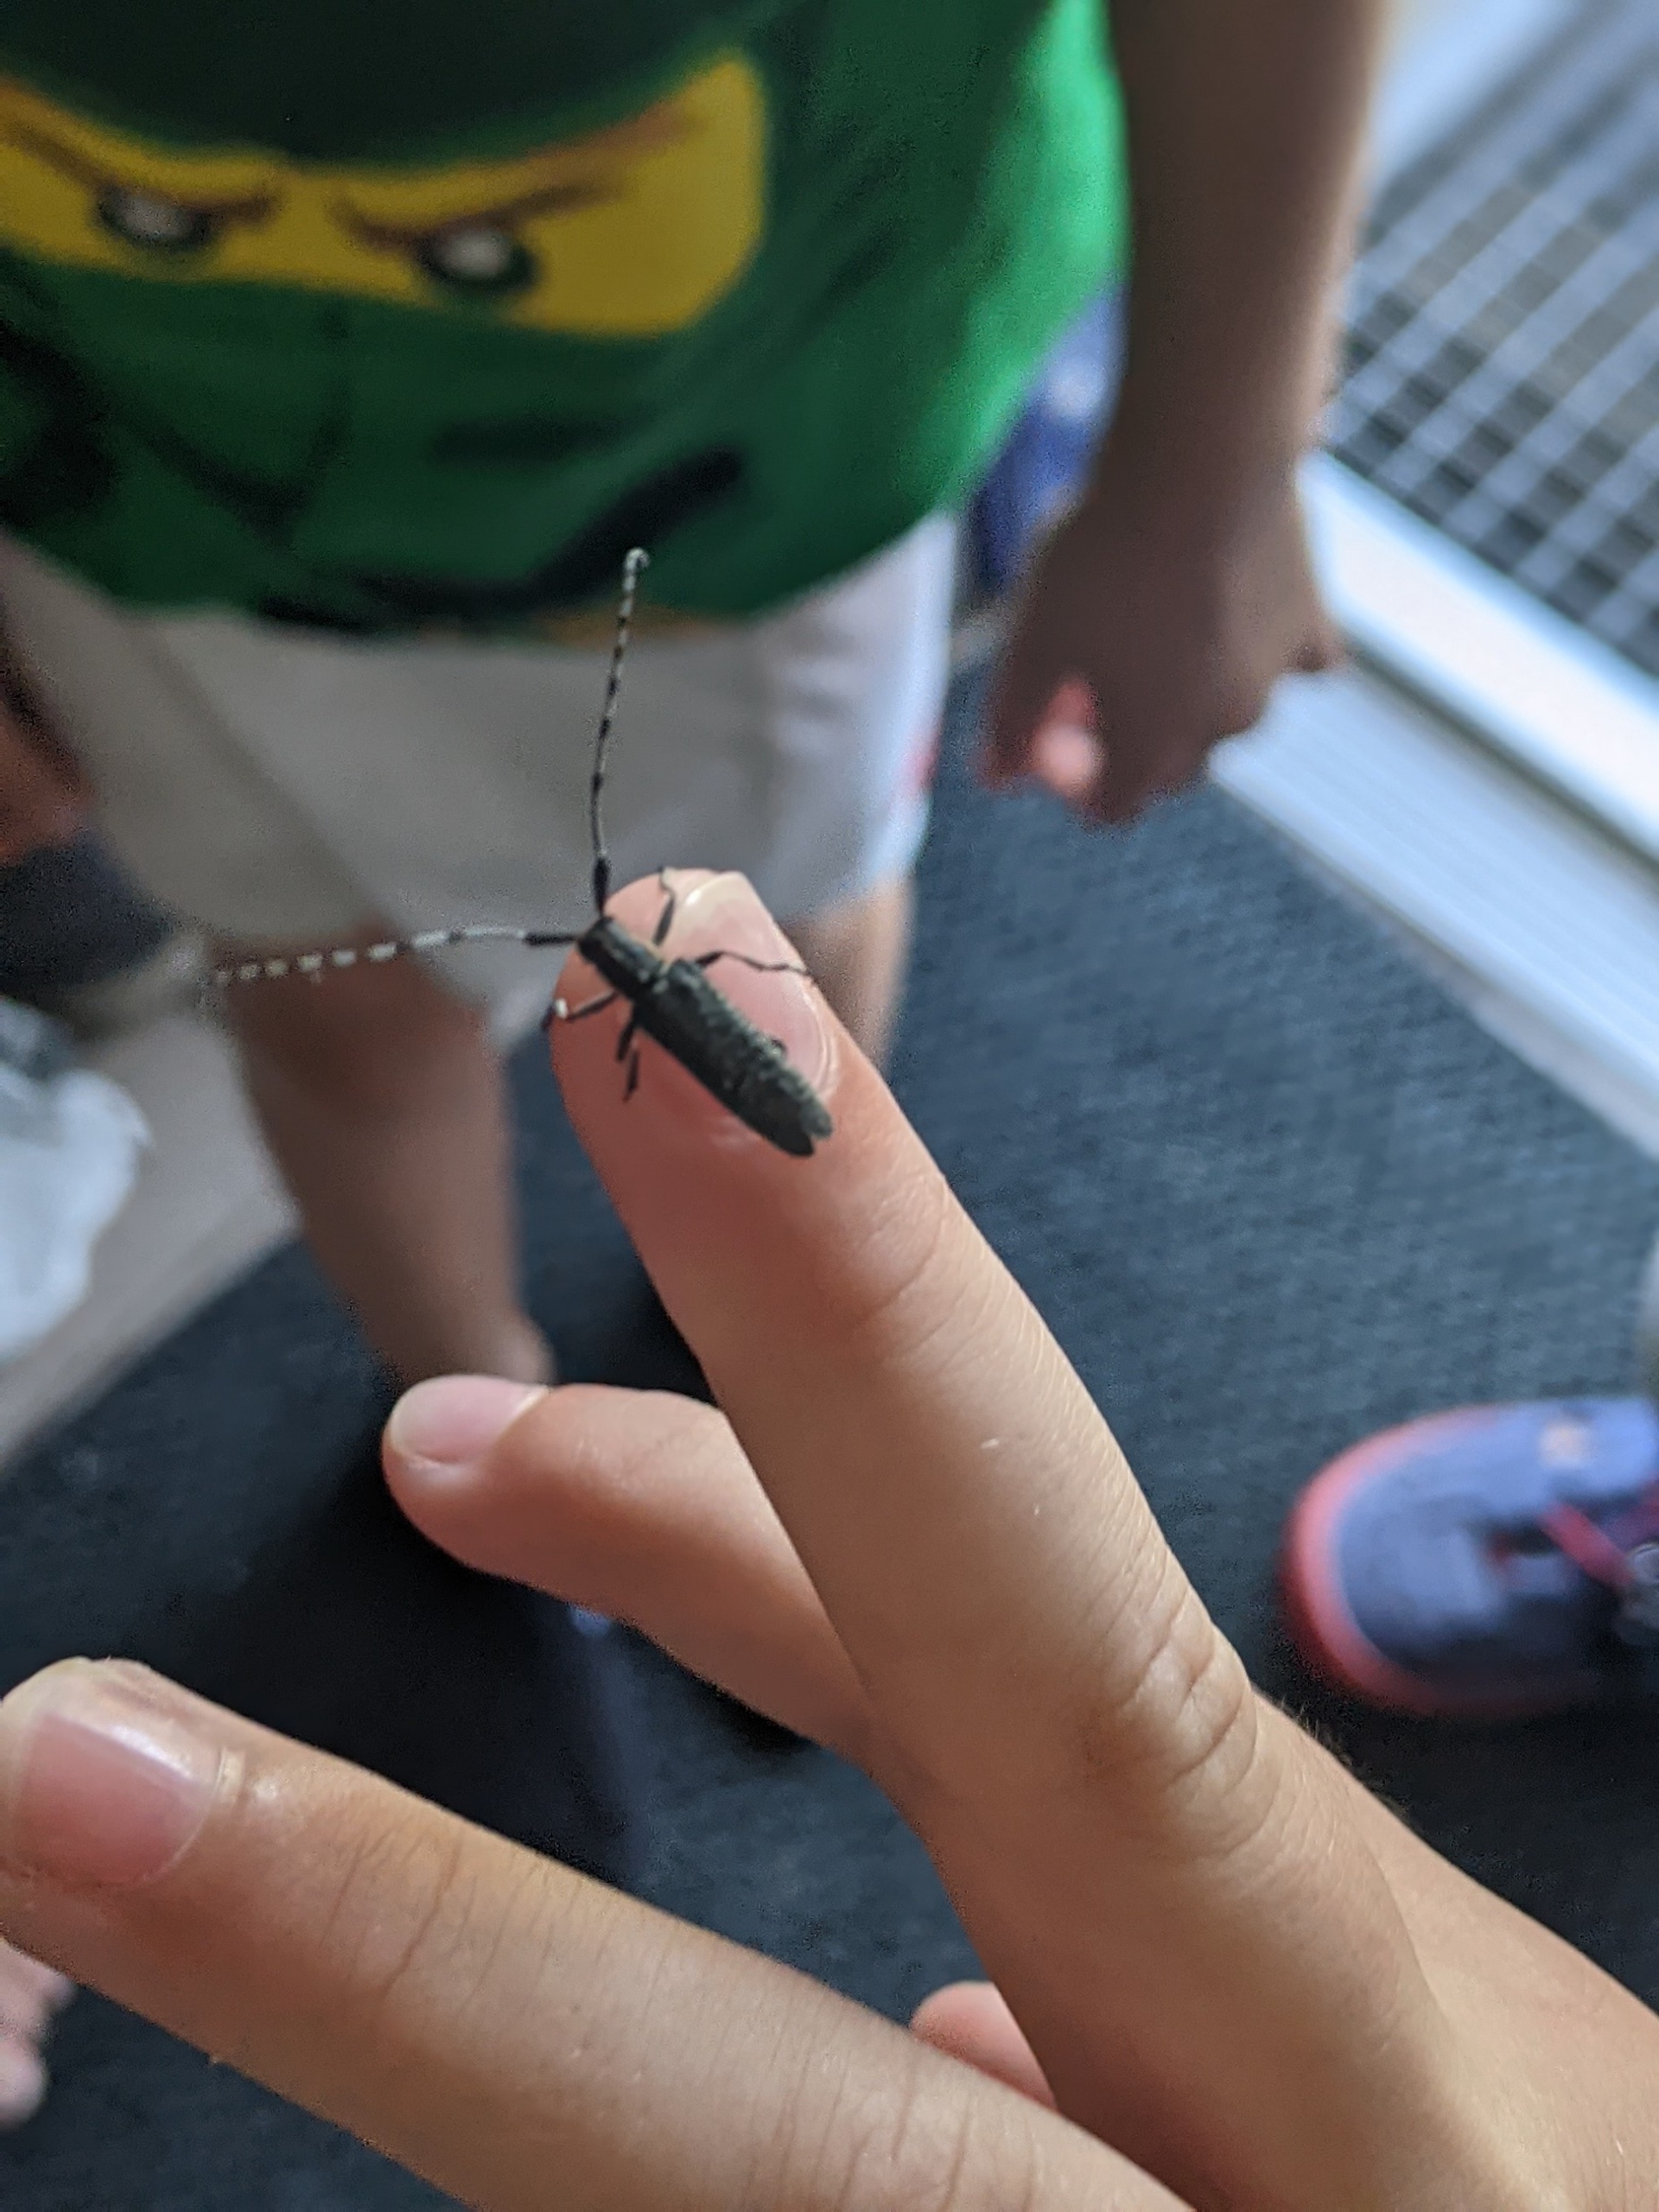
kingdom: Animalia
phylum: Arthropoda
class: Insecta
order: Coleoptera
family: Cerambycidae
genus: Agapanthia
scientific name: Agapanthia villosoviridescens
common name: Tidselbuk
